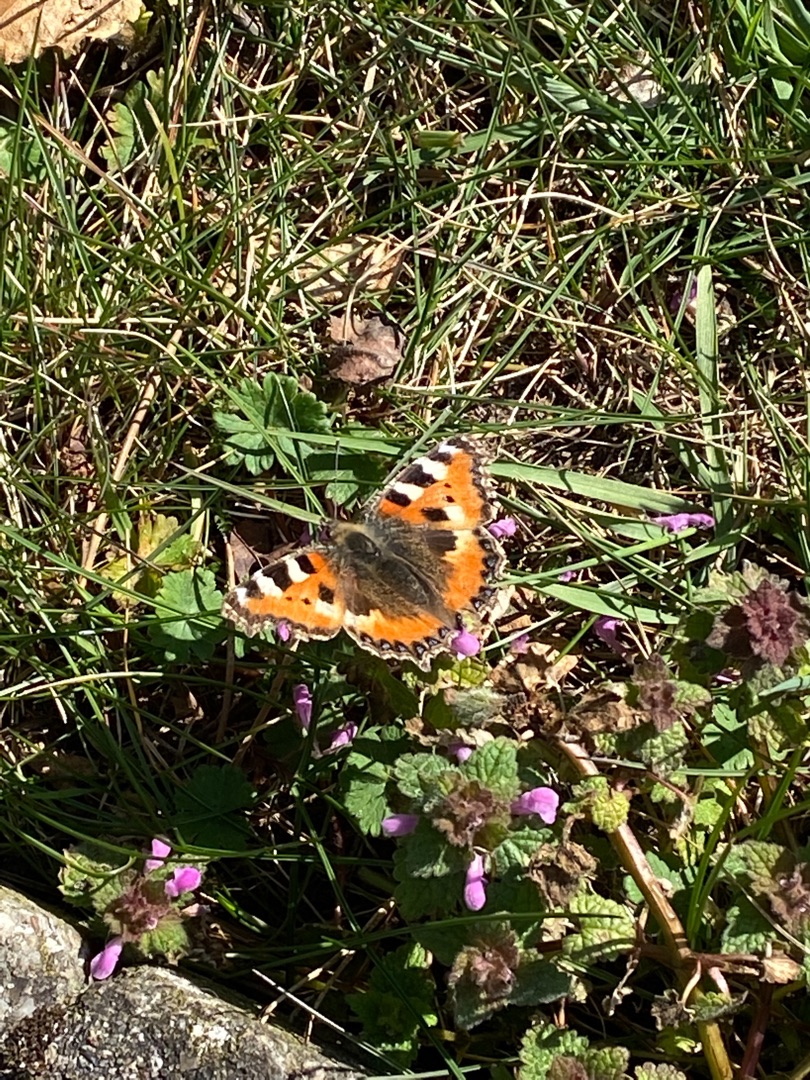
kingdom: Animalia
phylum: Arthropoda
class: Insecta
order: Lepidoptera
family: Nymphalidae
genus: Aglais
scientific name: Aglais urticae
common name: Nældens takvinge
